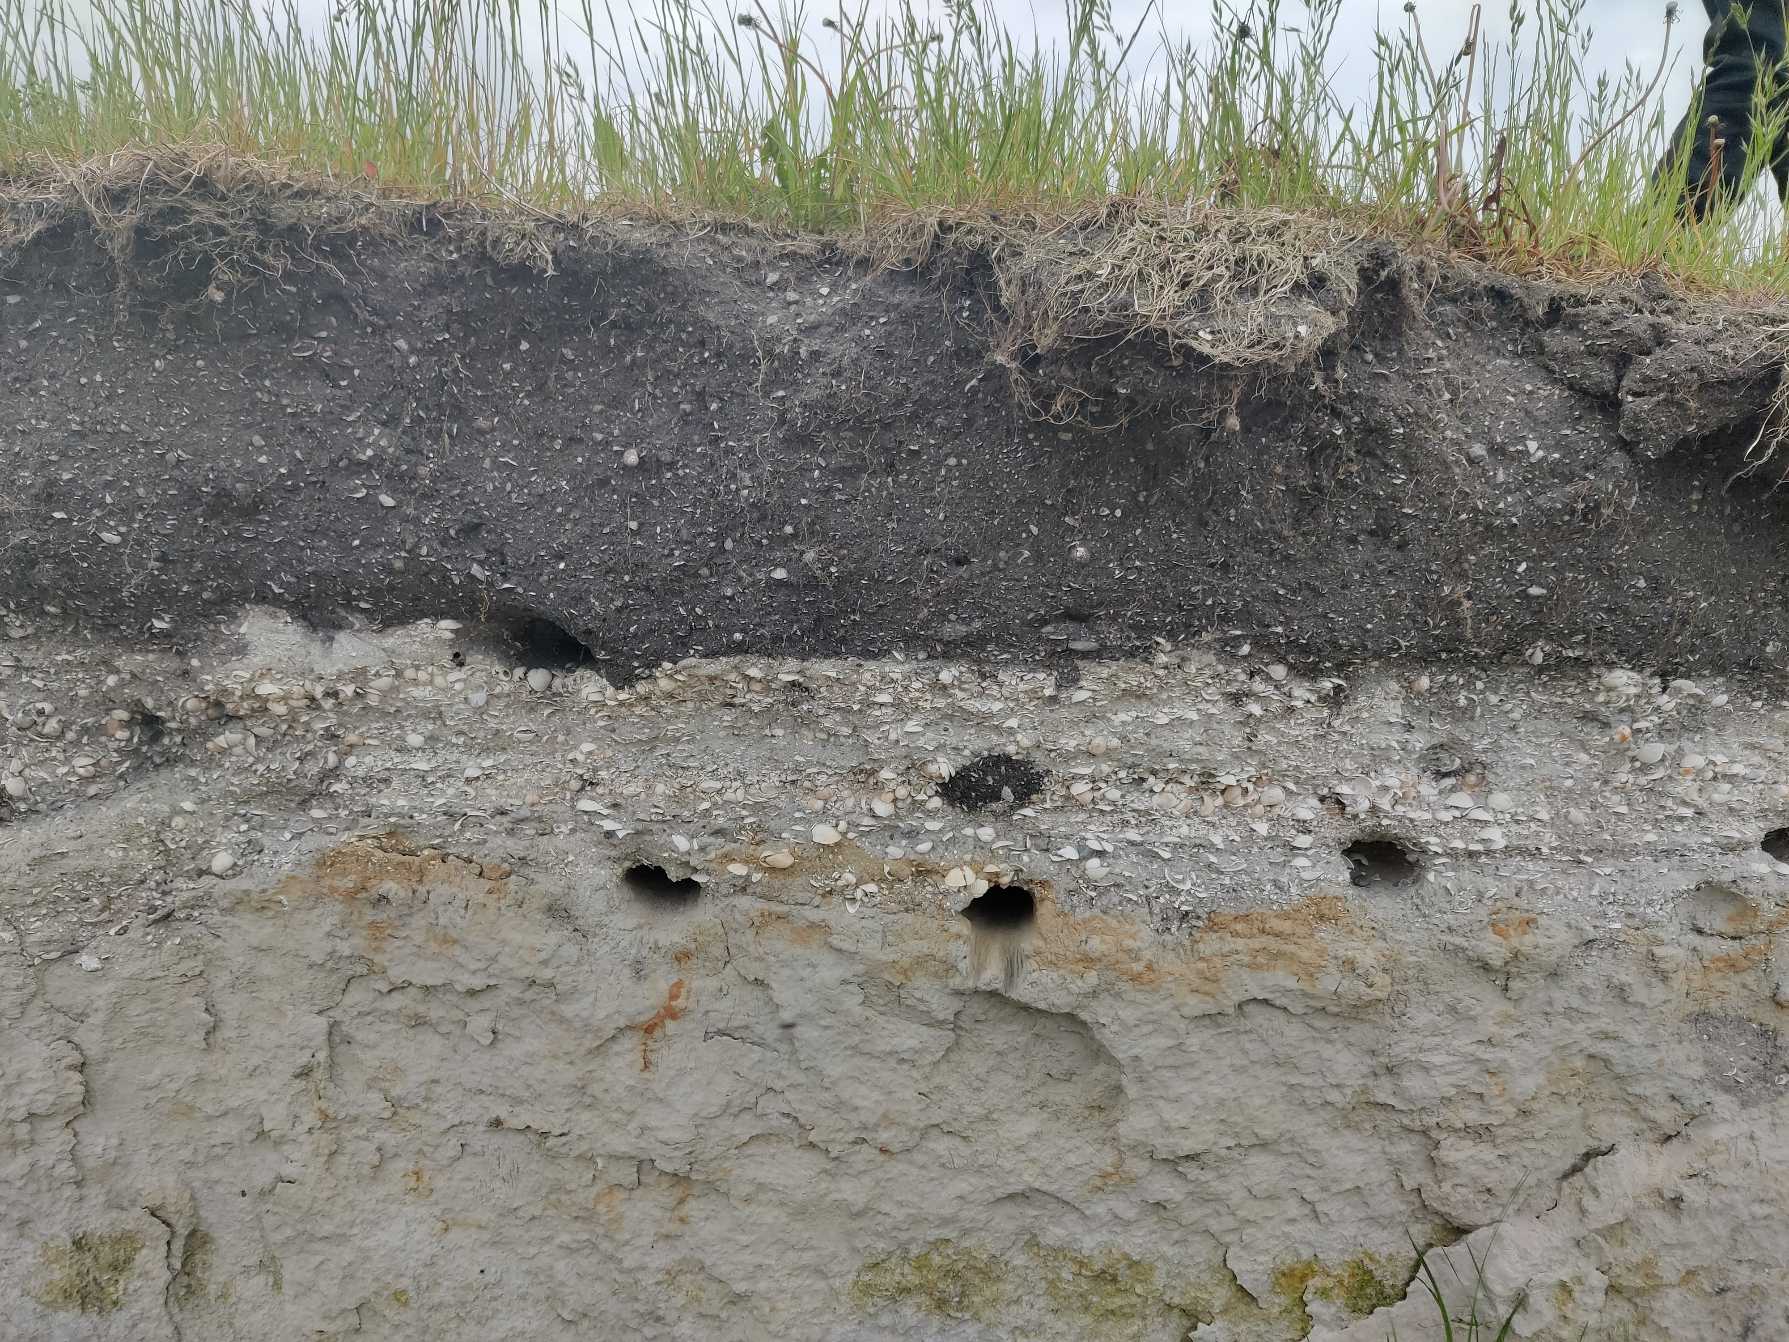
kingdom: Animalia
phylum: Chordata
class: Aves
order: Passeriformes
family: Hirundinidae
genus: Riparia
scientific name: Riparia riparia
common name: Digesvale
